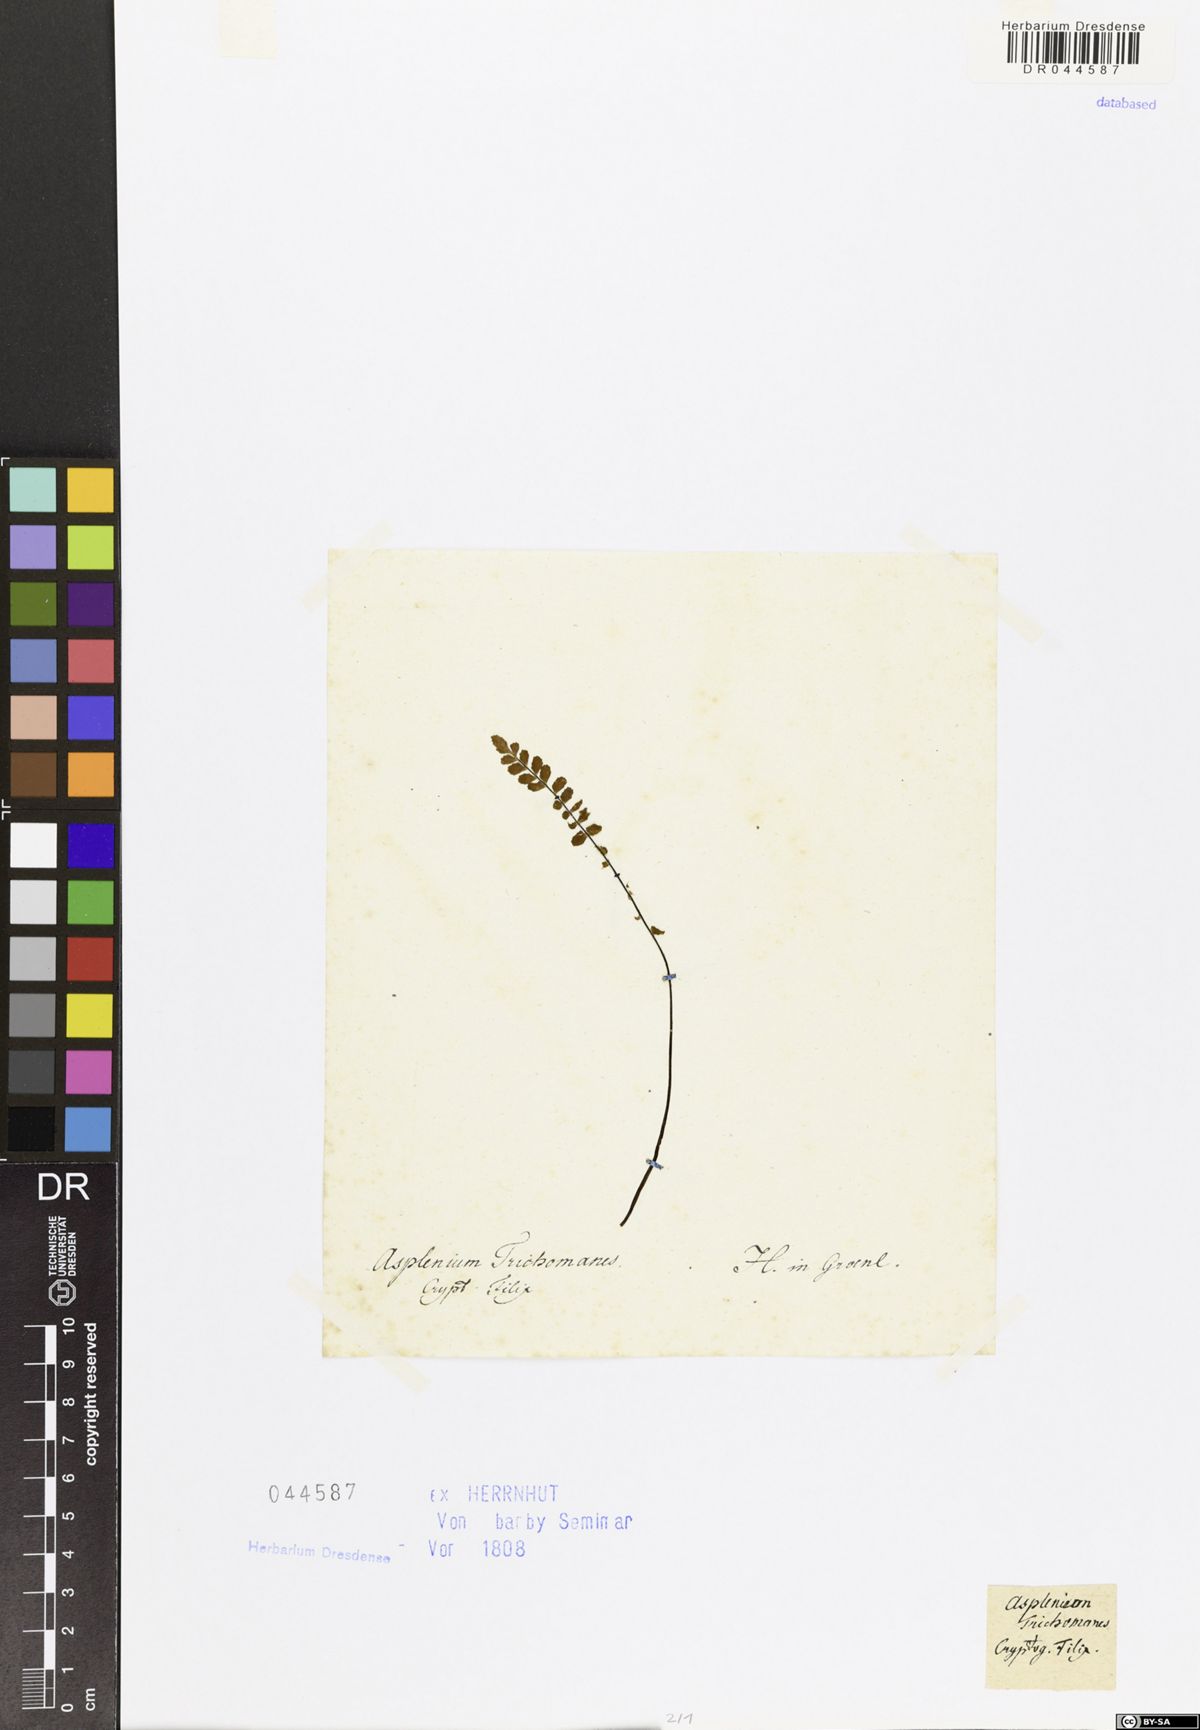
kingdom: Plantae
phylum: Tracheophyta
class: Polypodiopsida
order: Polypodiales
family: Aspleniaceae
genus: Asplenium
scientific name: Asplenium trichomanes
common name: Maidenhair spleenwort
